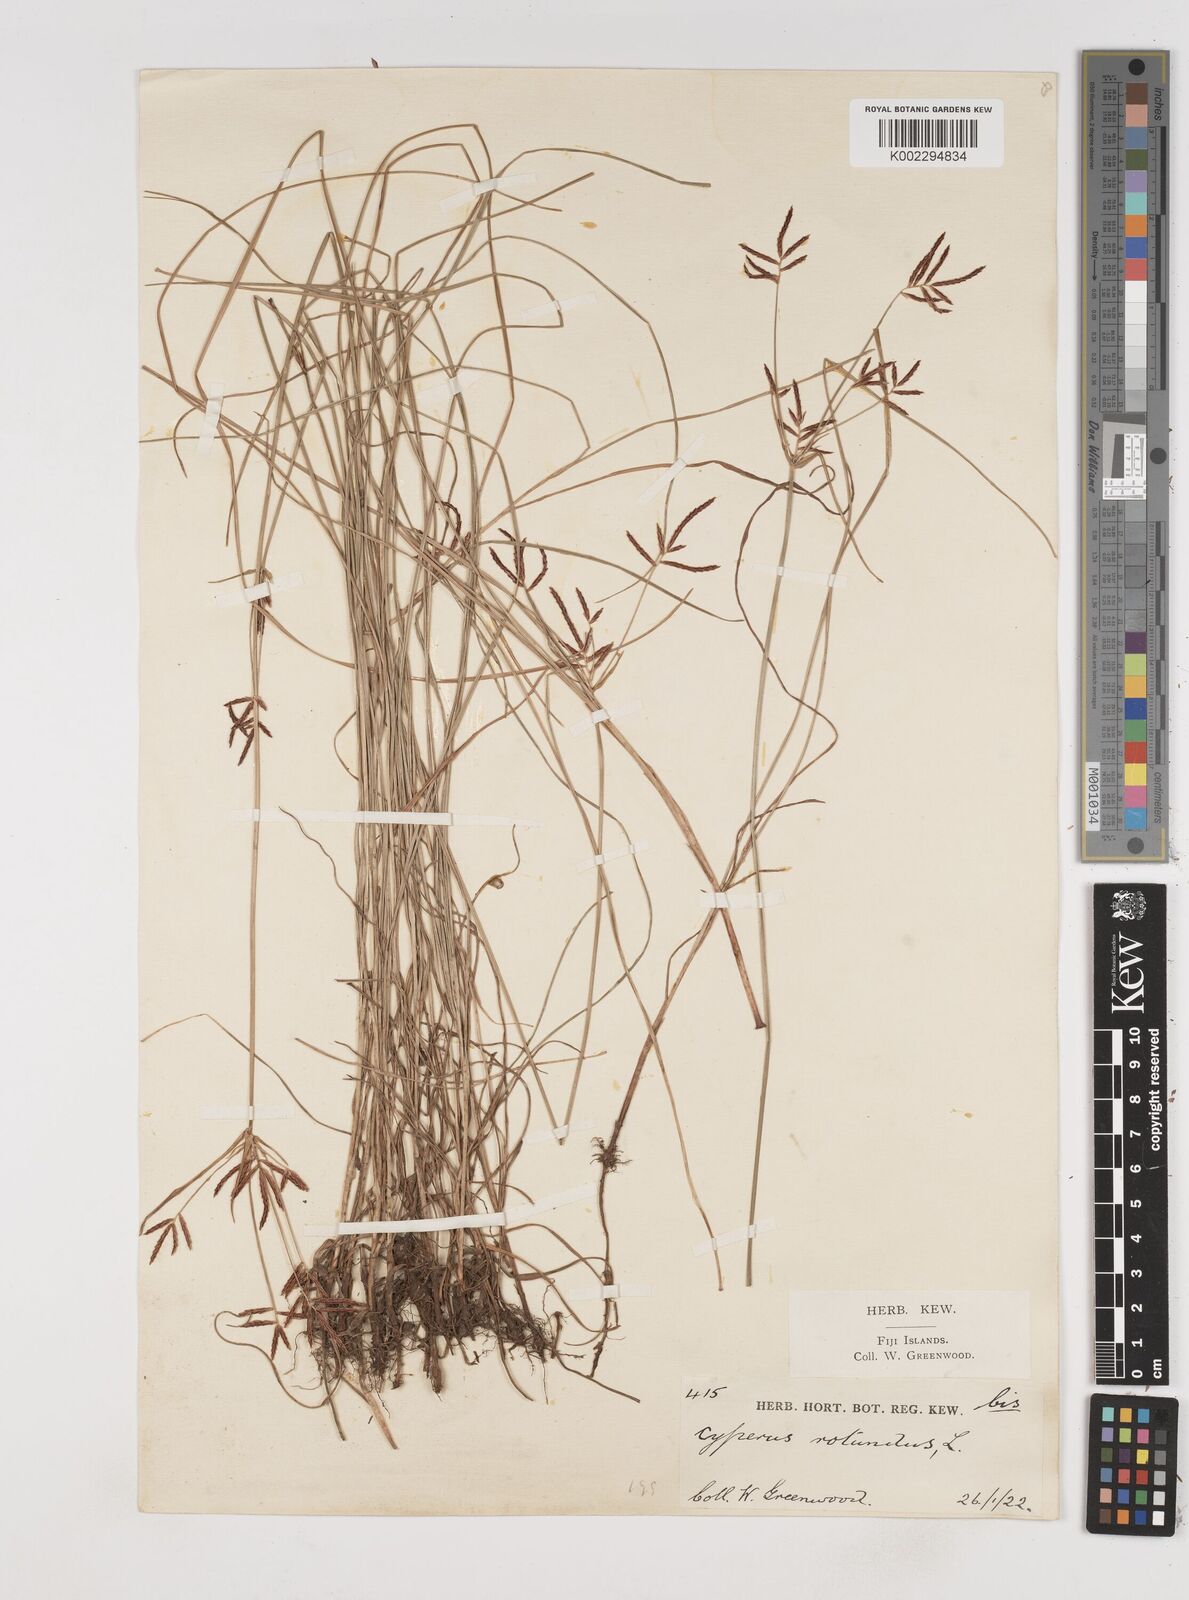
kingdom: Plantae
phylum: Tracheophyta
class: Liliopsida
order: Poales
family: Cyperaceae
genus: Cyperus
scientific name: Cyperus rotundus
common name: Nutgrass
